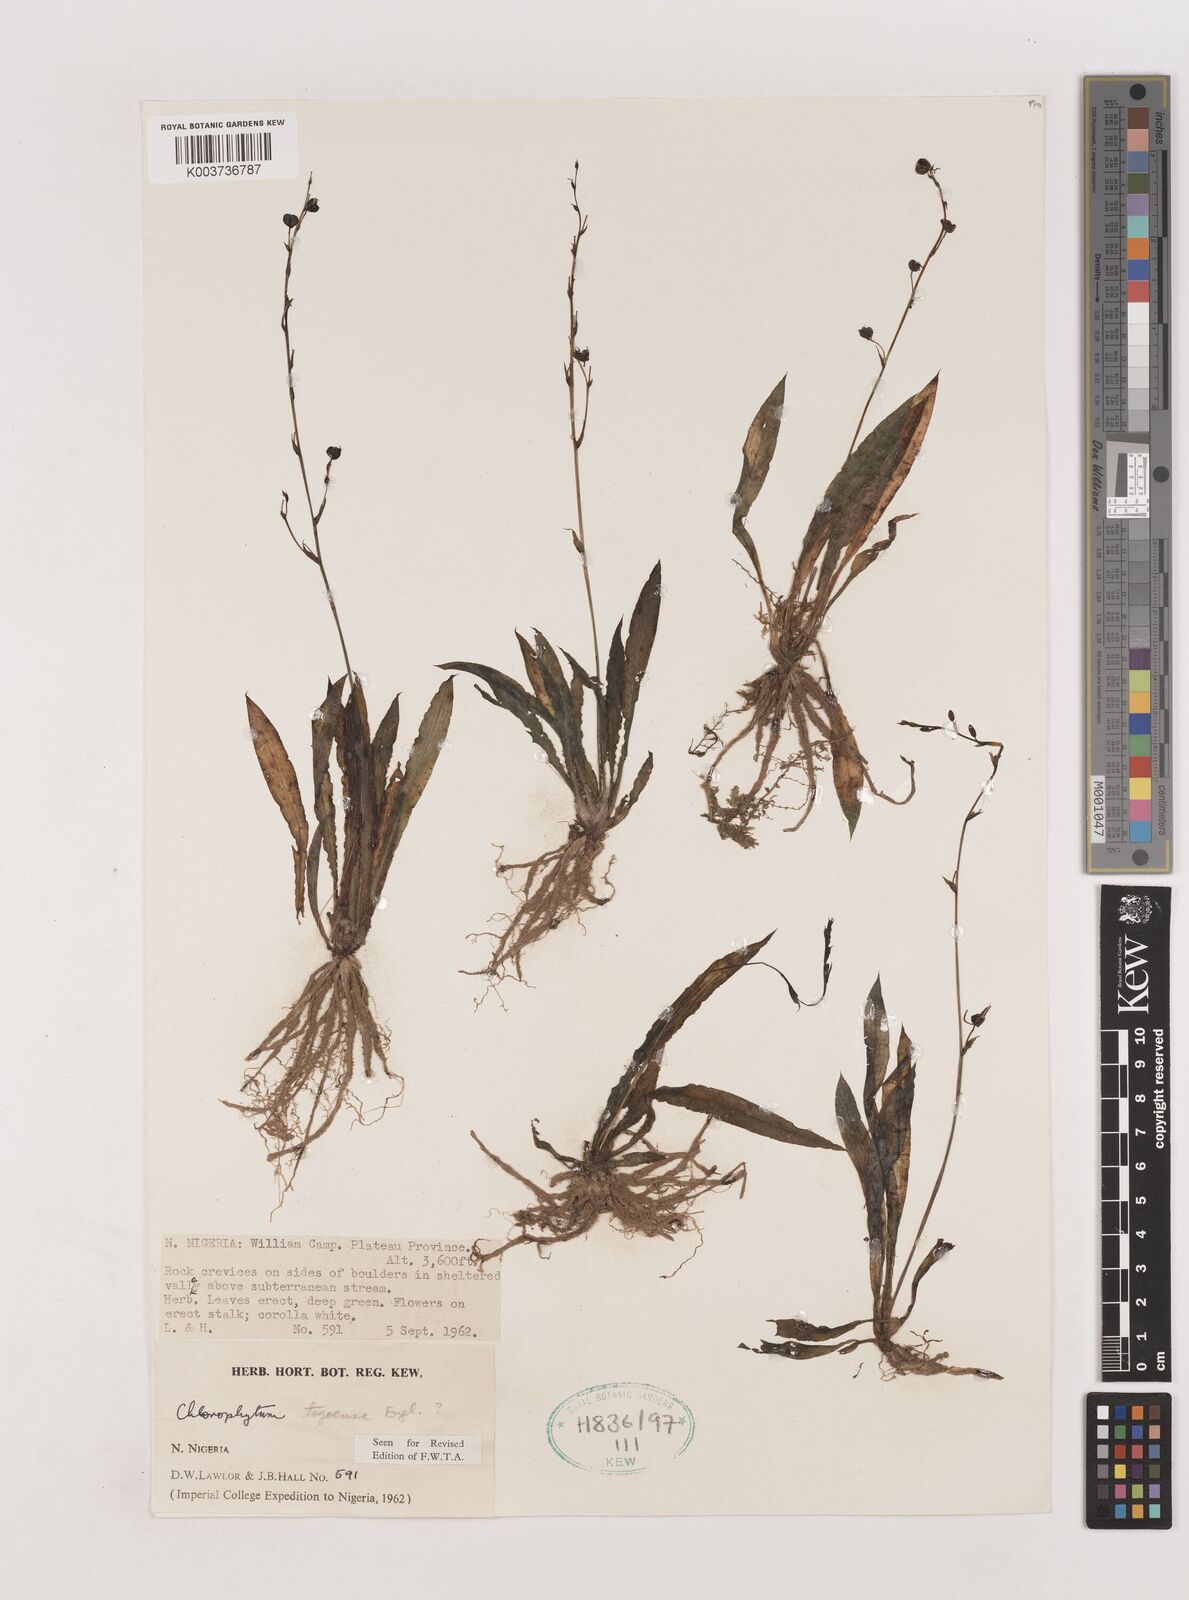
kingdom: Plantae
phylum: Tracheophyta
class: Liliopsida
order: Asparagales
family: Asparagaceae
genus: Chlorophytum
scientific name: Chlorophytum lancifolium
